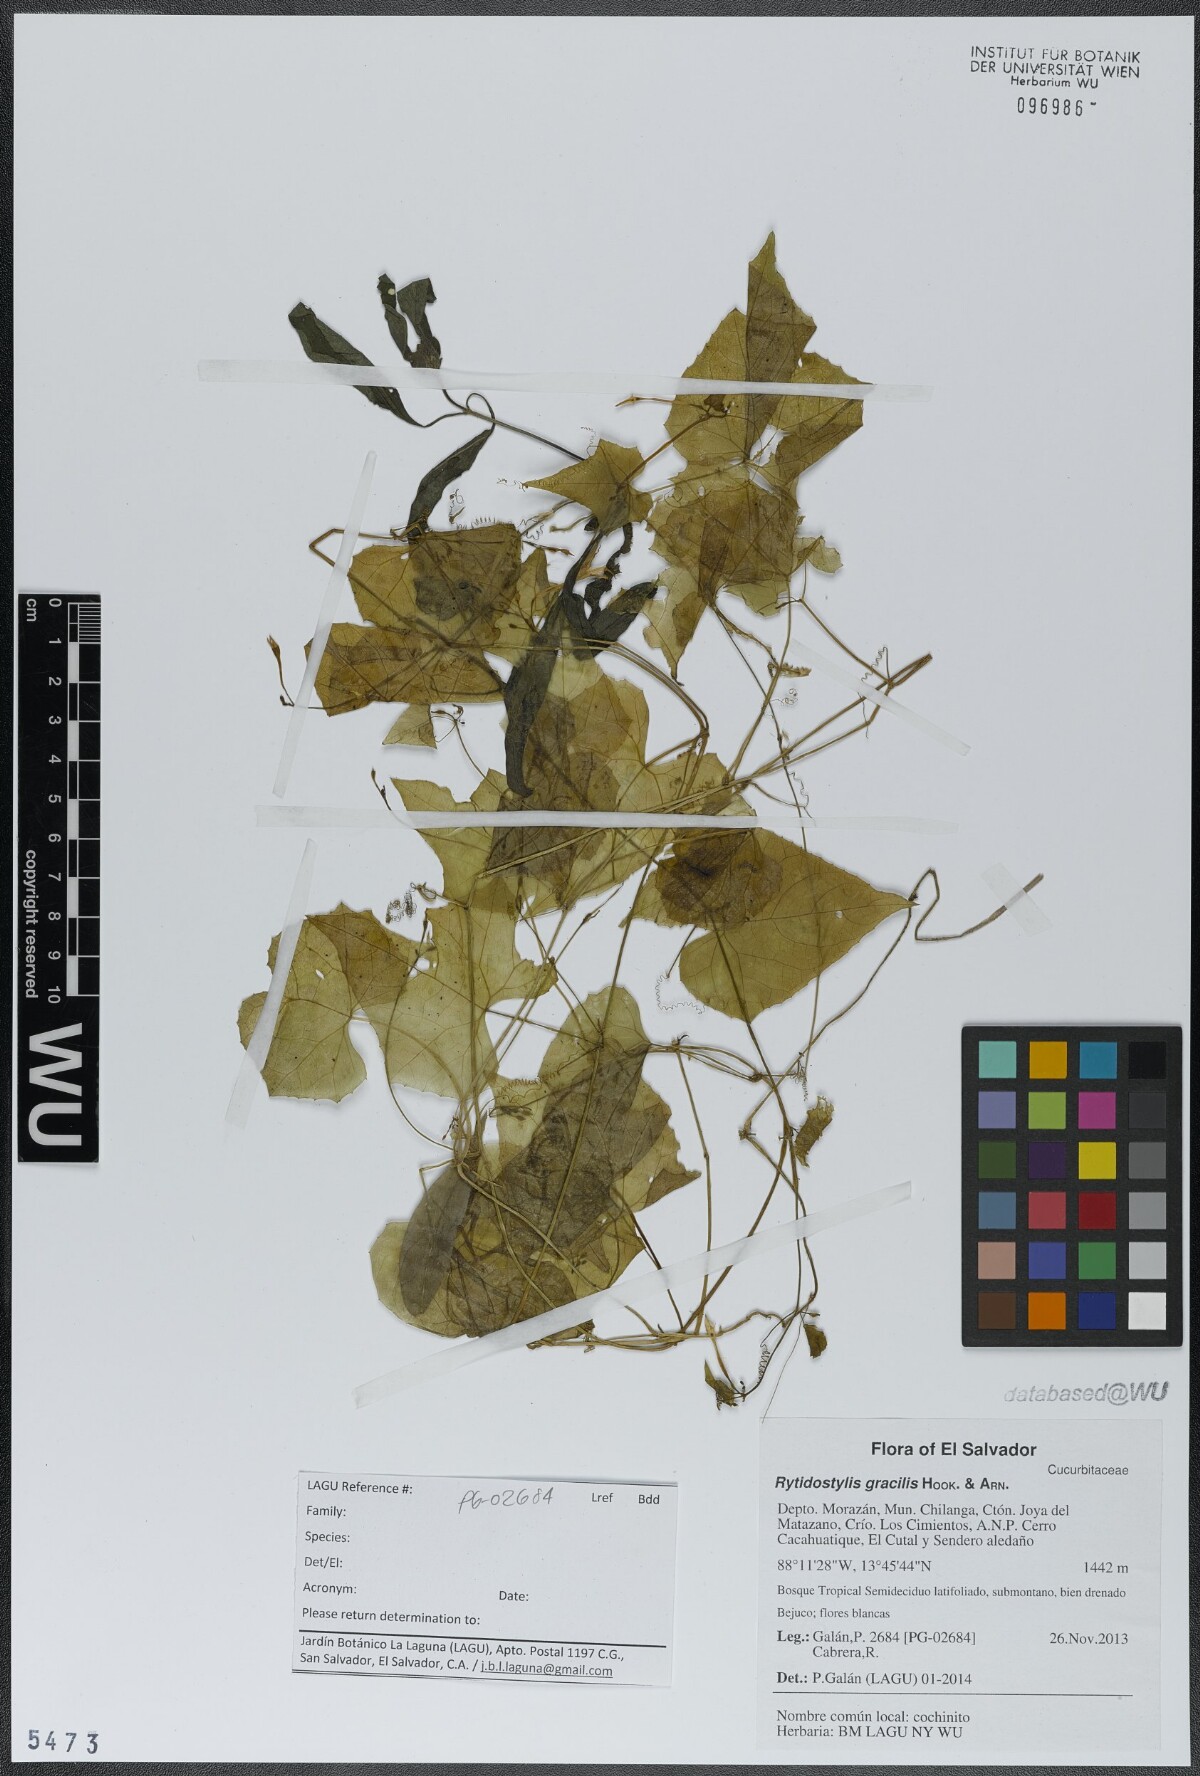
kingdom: Plantae
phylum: Tracheophyta
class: Magnoliopsida
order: Cucurbitales
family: Cucurbitaceae
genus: Cyclanthera
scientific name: Cyclanthera filiformis
